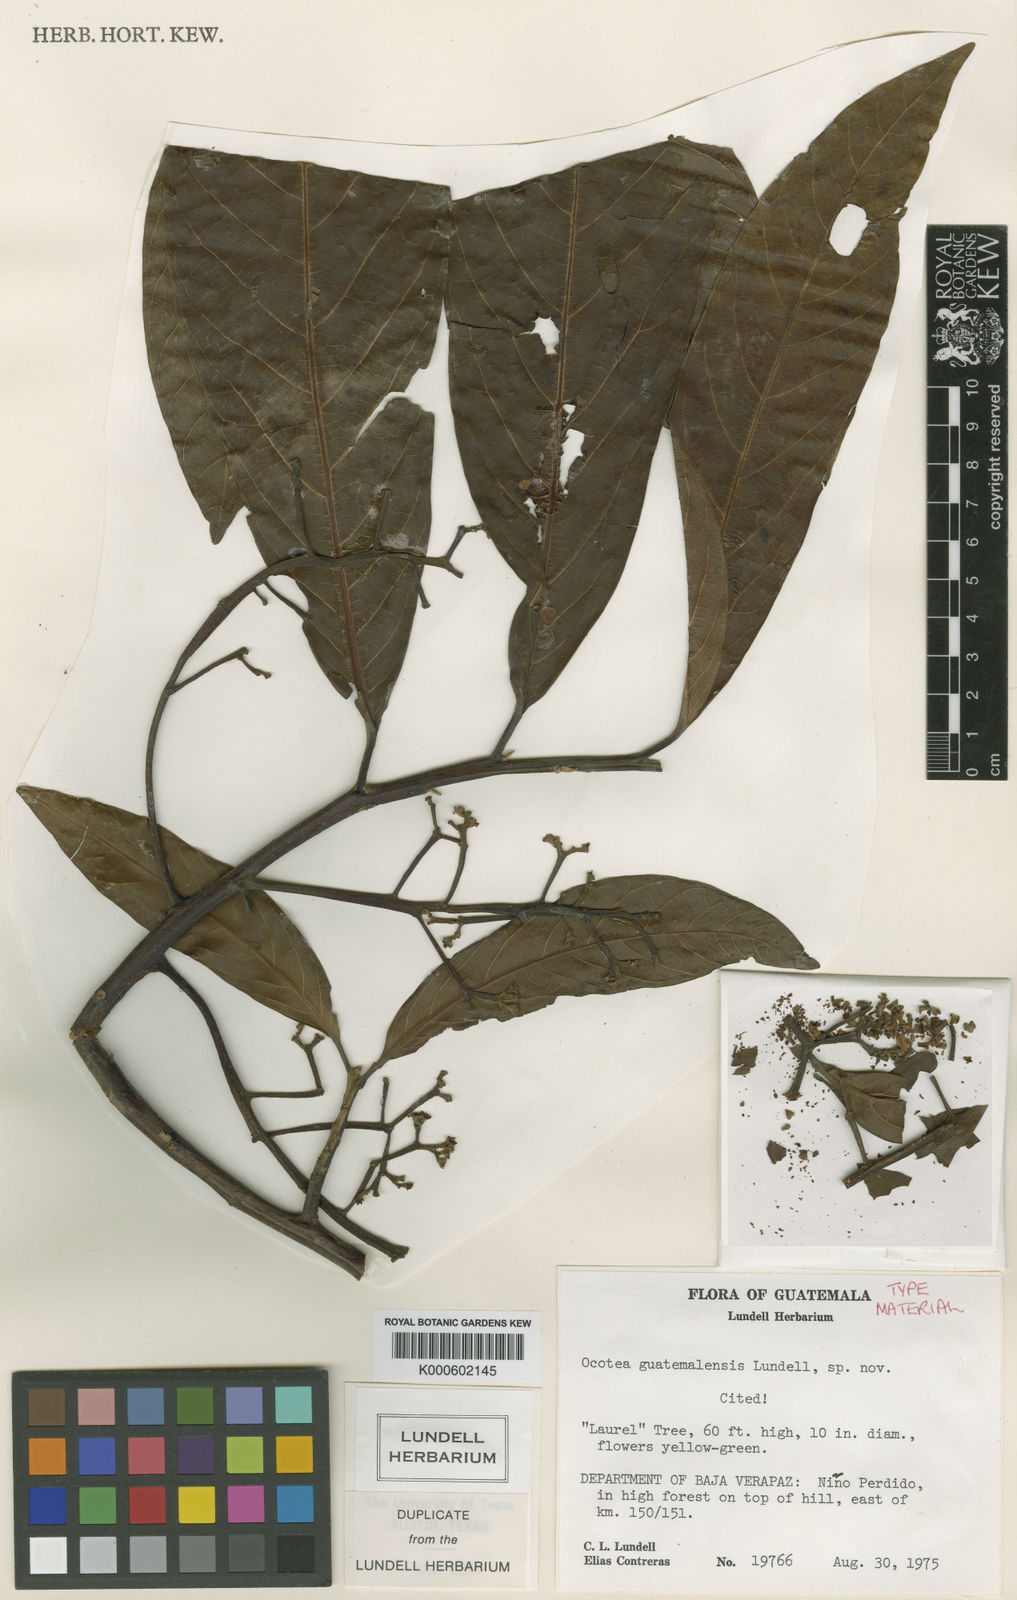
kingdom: Plantae
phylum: Tracheophyta
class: Magnoliopsida
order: Laurales
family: Lauraceae
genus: Ocotea
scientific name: Ocotea guatemalensis
